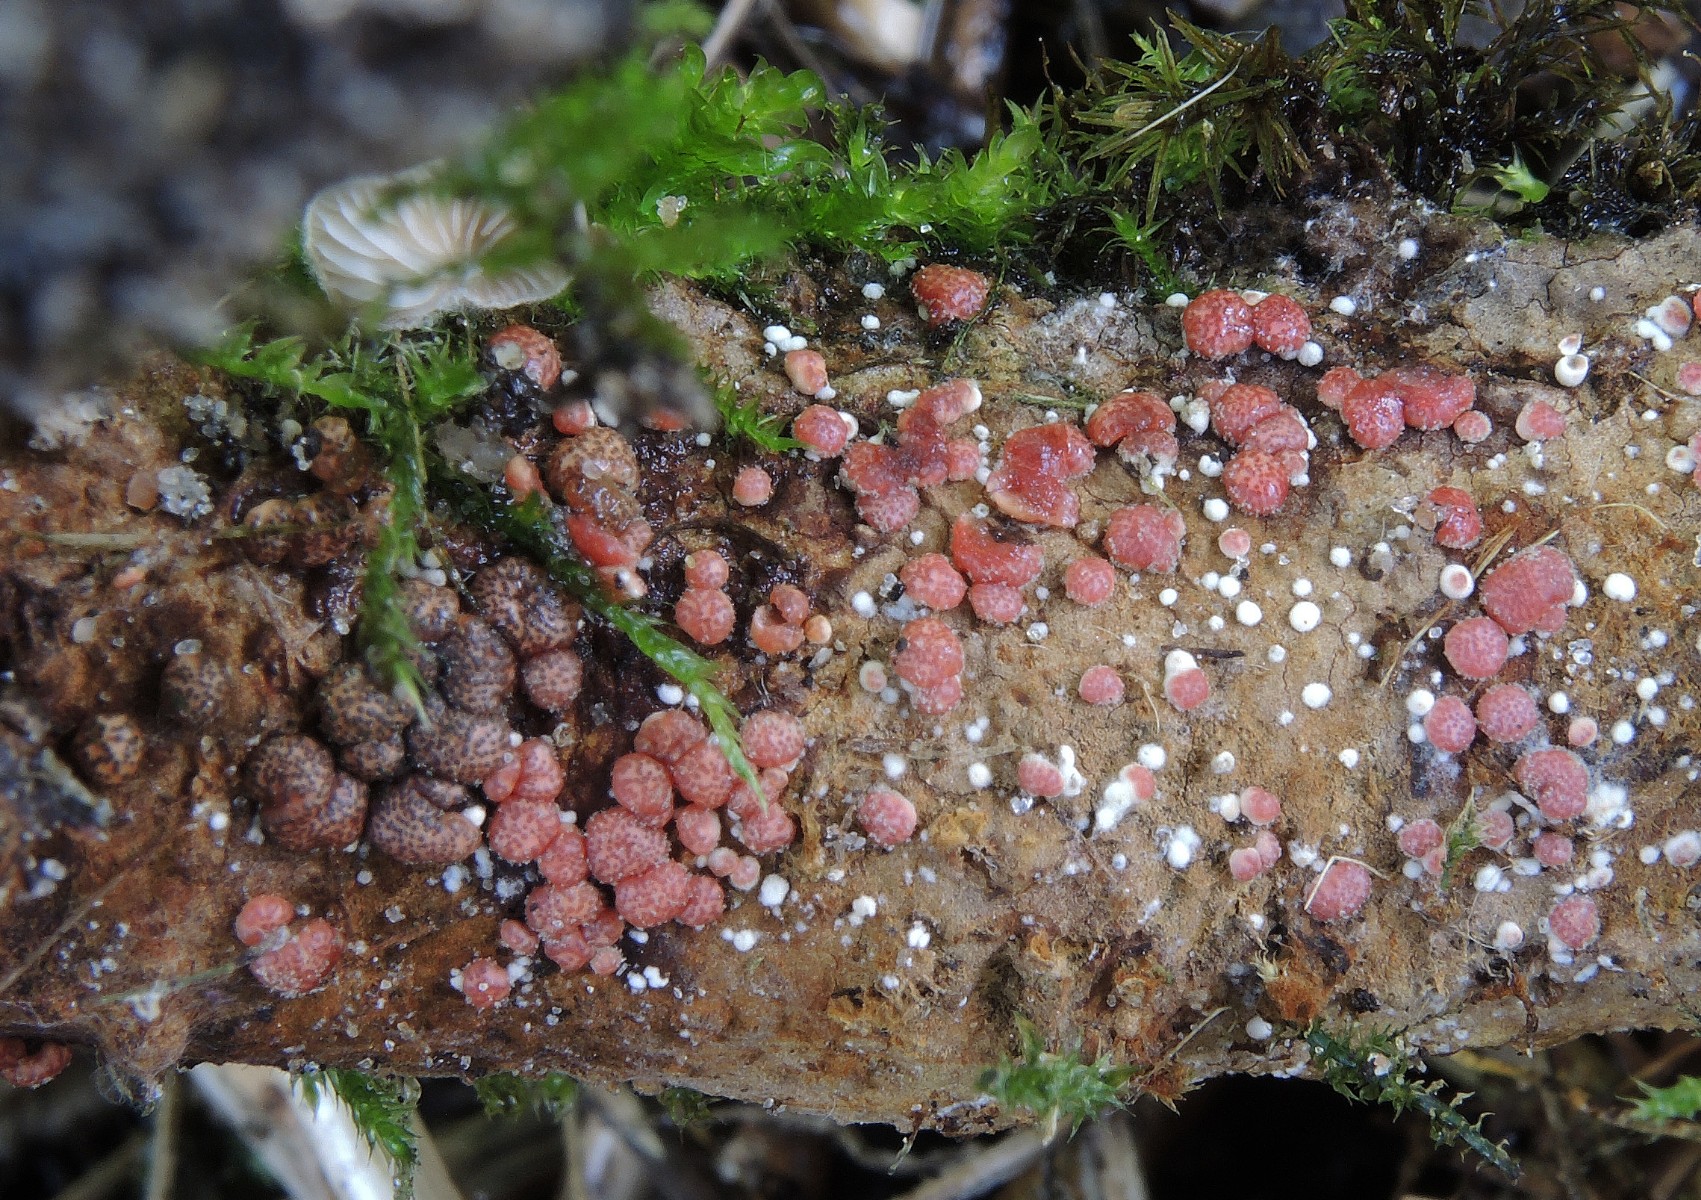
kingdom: Fungi
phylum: Ascomycota
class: Sordariomycetes
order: Hypocreales
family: Hypocreaceae
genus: Trichoderma
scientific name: Trichoderma estonicum
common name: ruslæder-kødkerne
